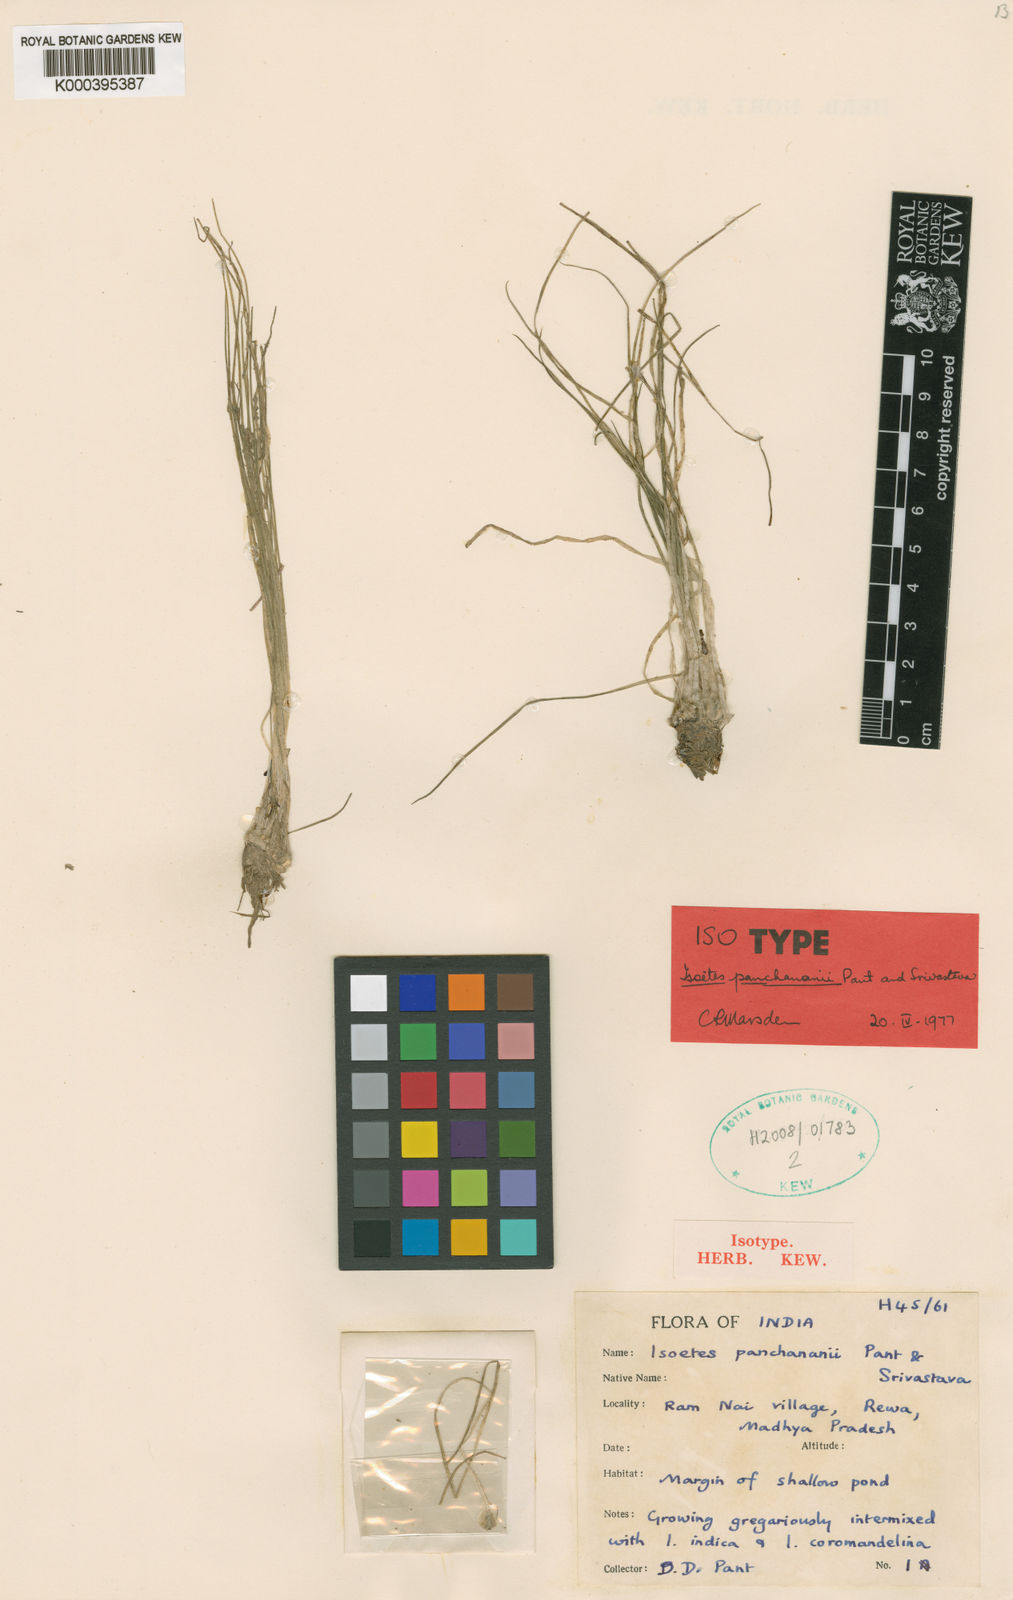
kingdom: Plantae
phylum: Tracheophyta
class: Lycopodiopsida
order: Isoetales
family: Isoetaceae
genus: Isoetes
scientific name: Isoetes sahyadrii
